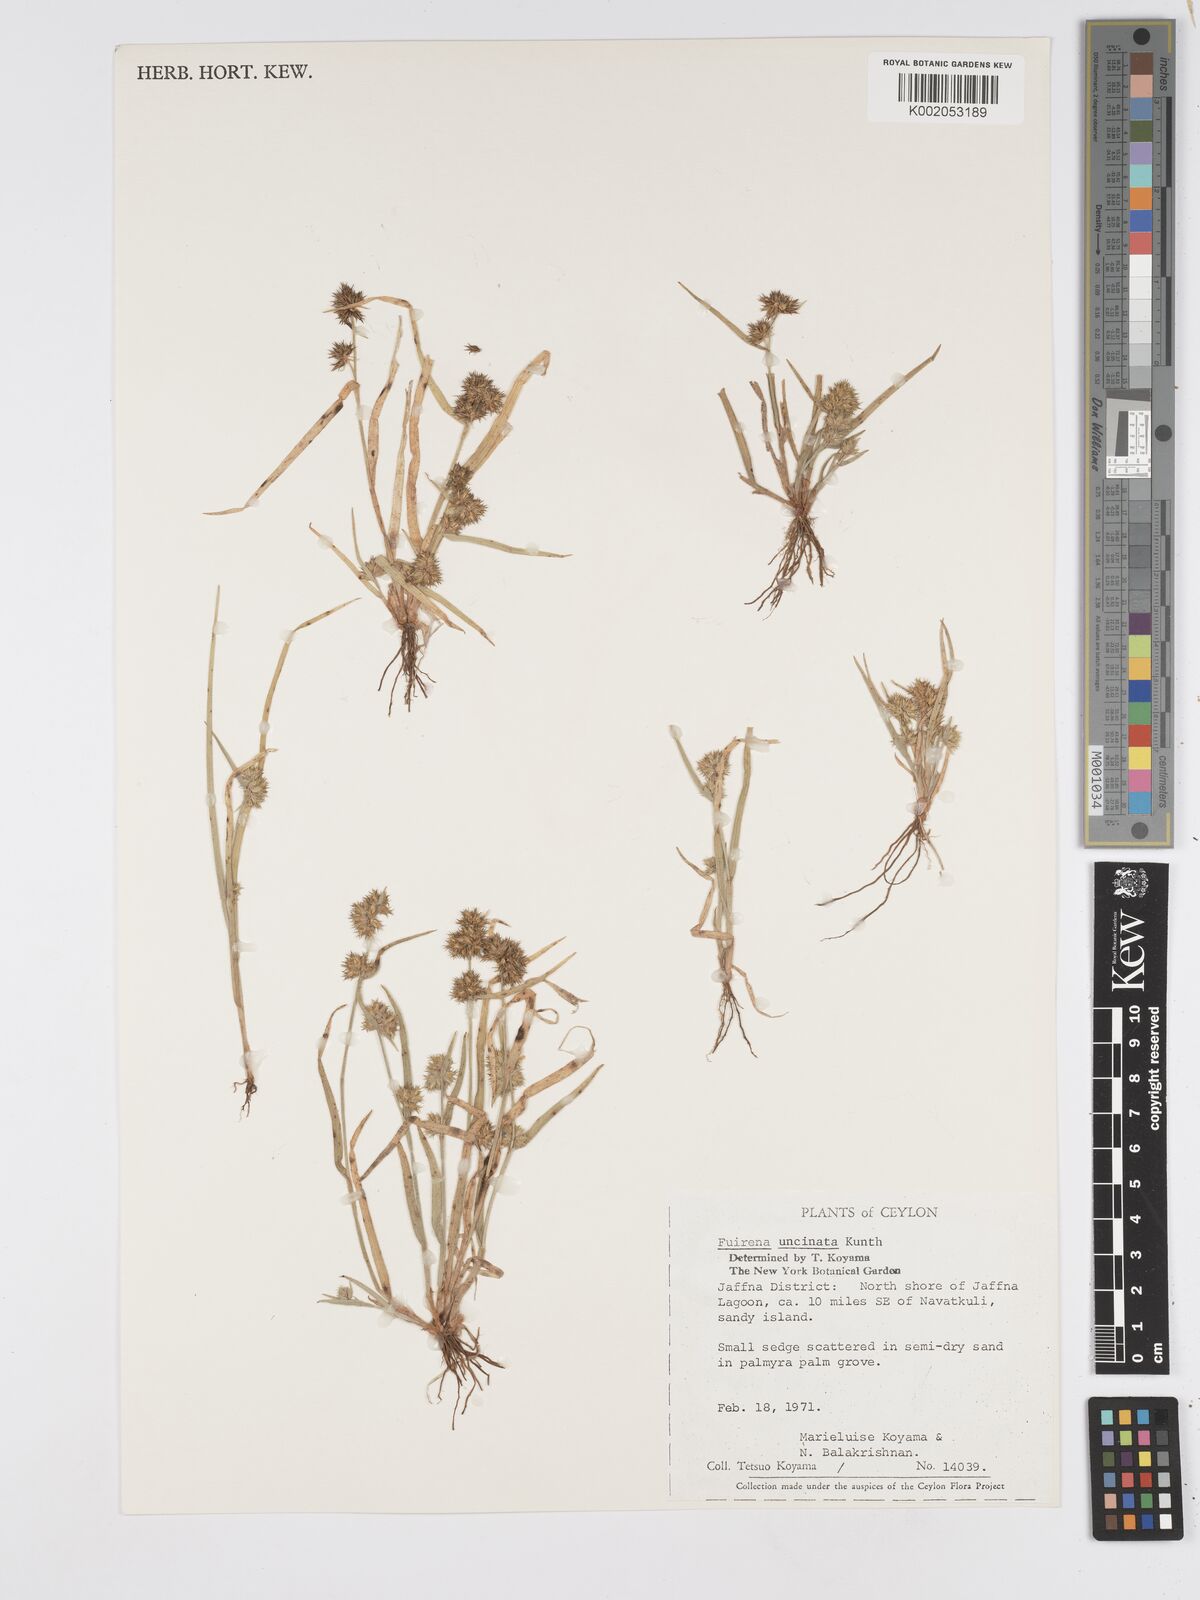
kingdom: Plantae
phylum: Tracheophyta
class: Liliopsida
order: Poales
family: Cyperaceae
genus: Fuirena
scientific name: Fuirena uncinata
